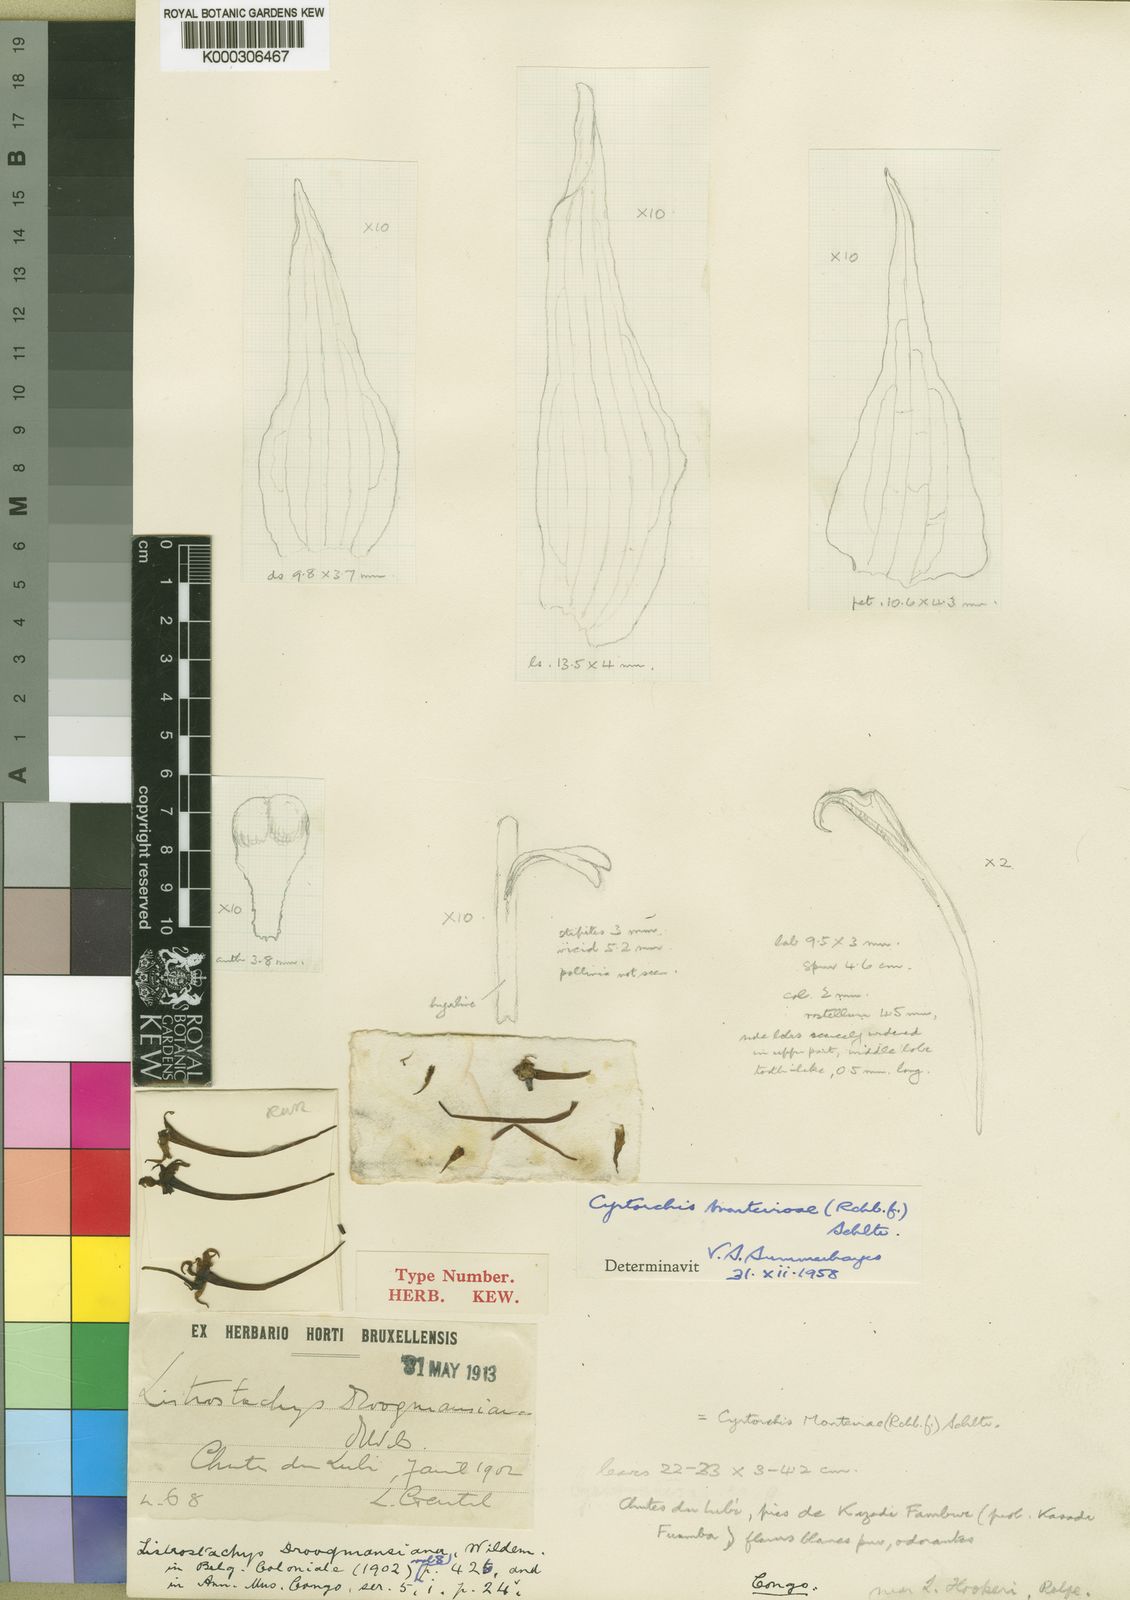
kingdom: Plantae
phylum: Tracheophyta
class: Liliopsida
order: Asparagales
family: Orchidaceae
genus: Cyrtorchis
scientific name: Cyrtorchis
